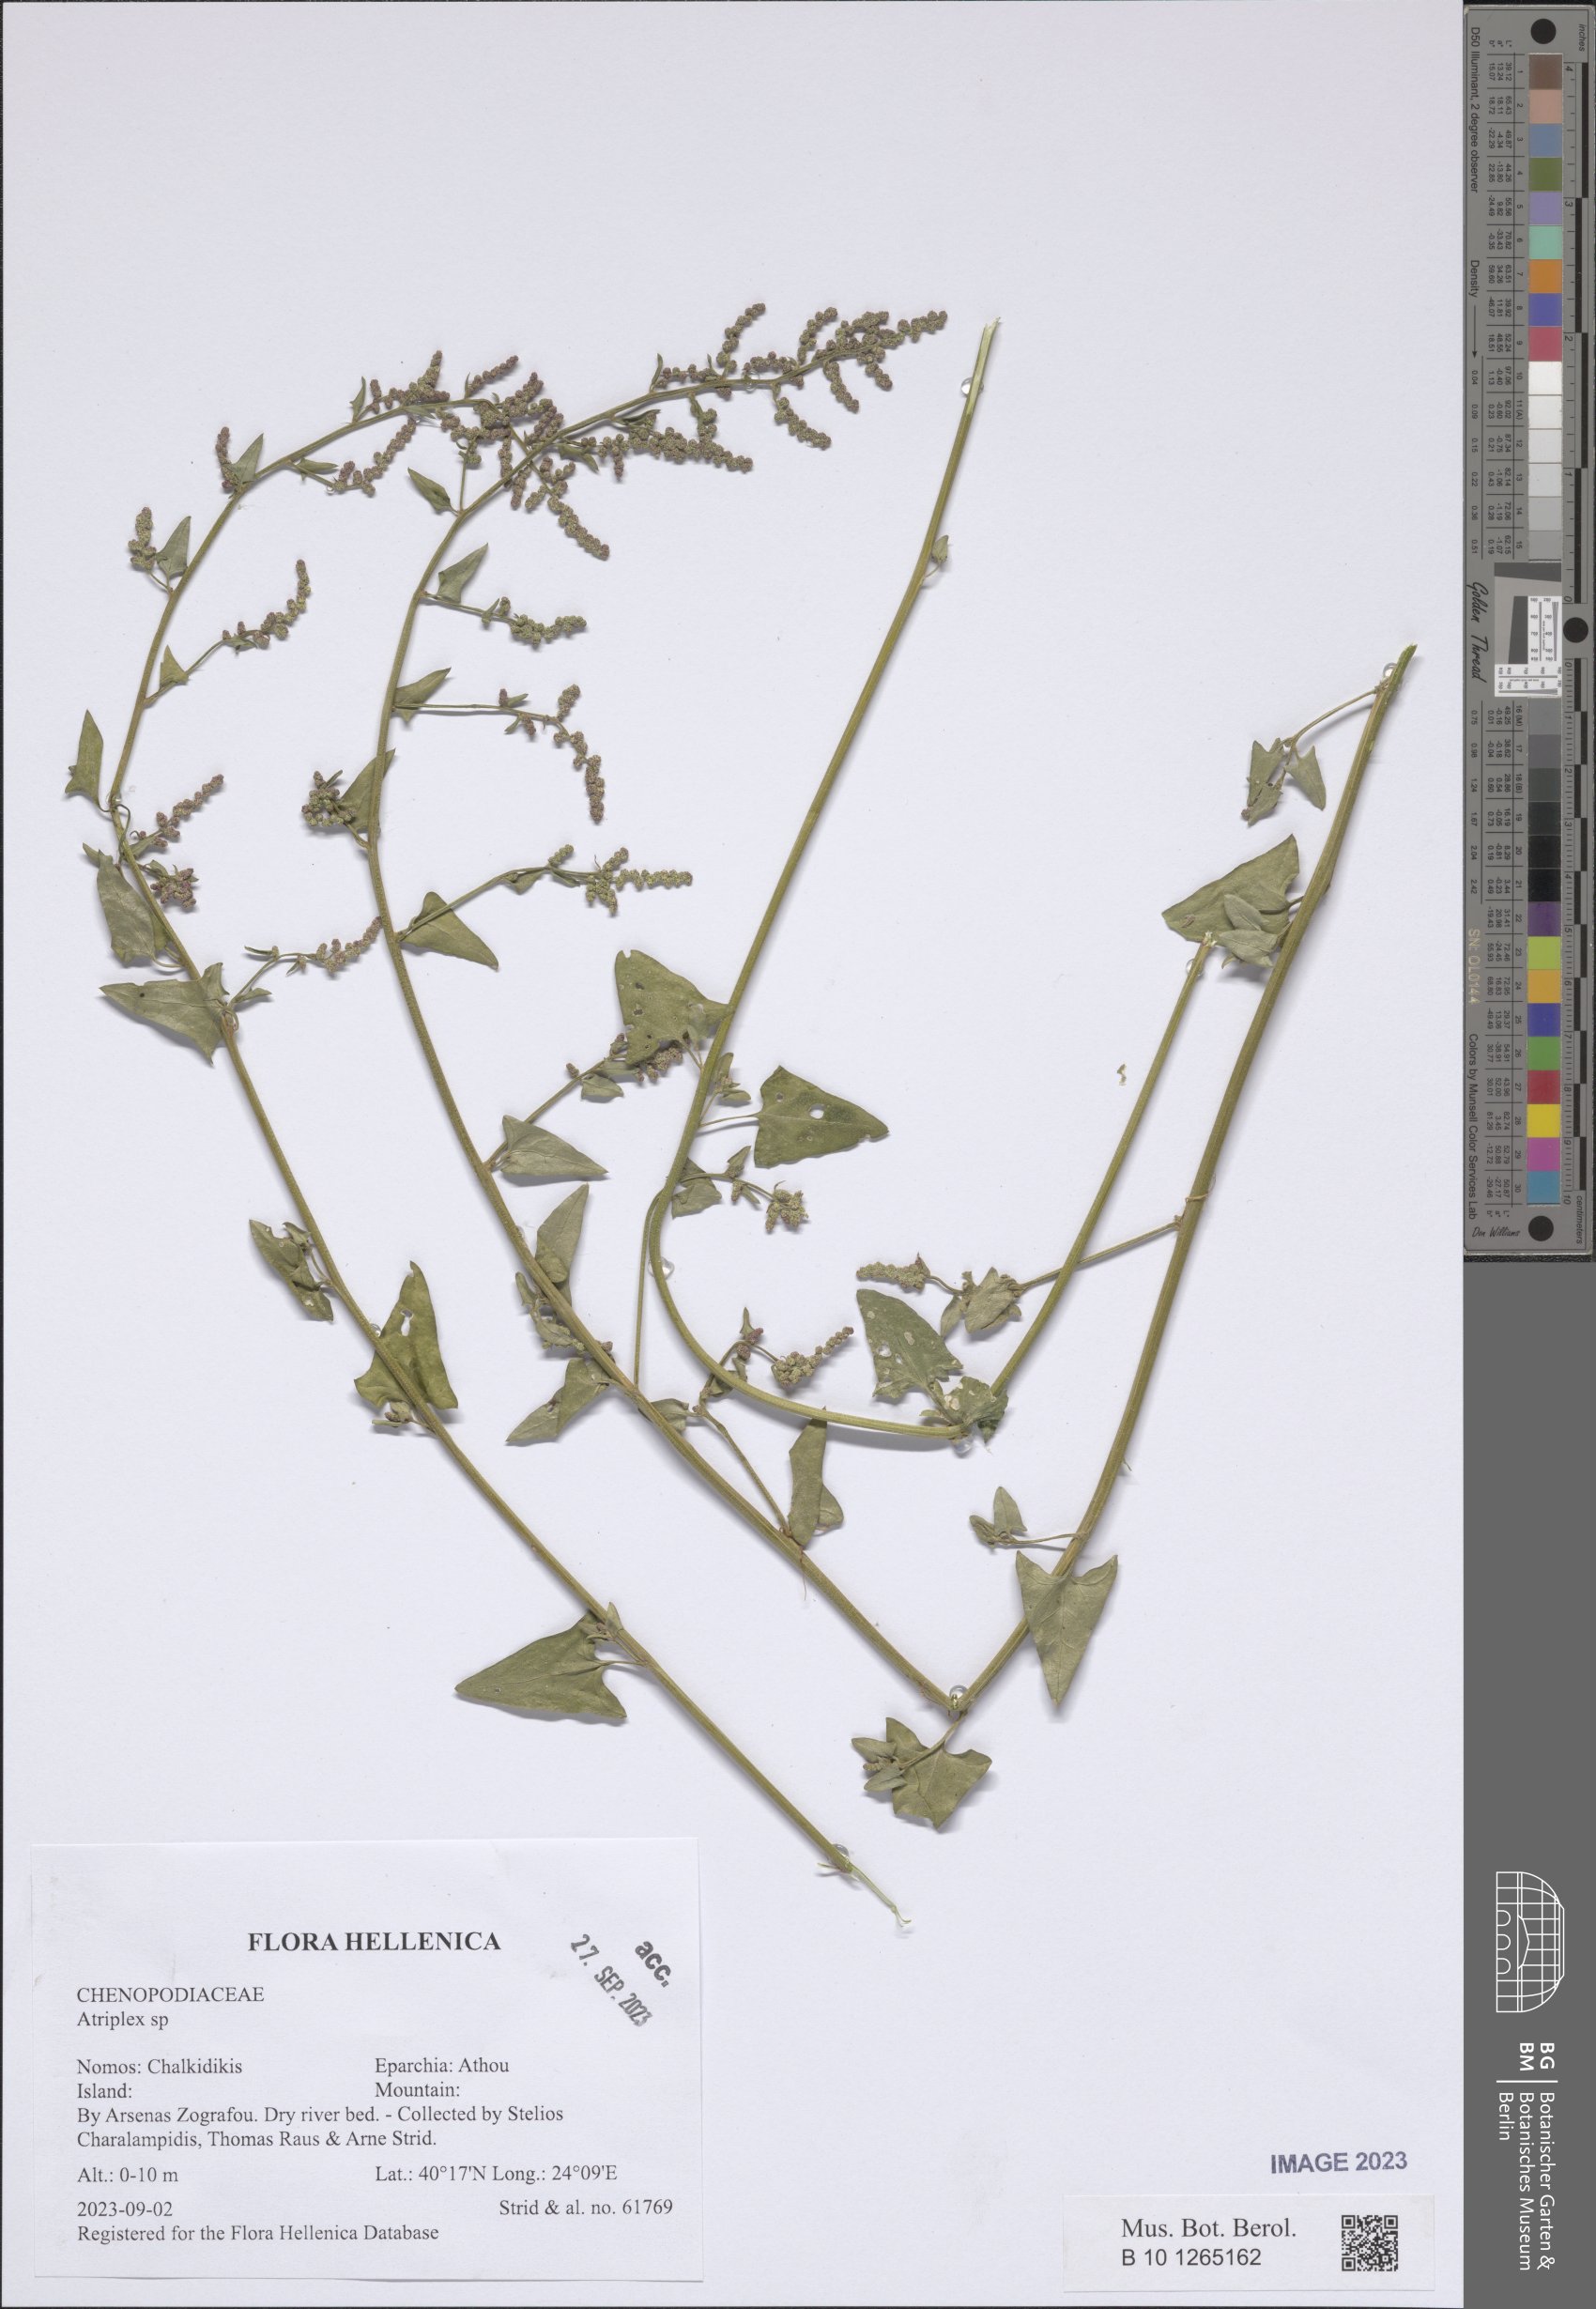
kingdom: Plantae
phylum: Tracheophyta
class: Magnoliopsida
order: Caryophyllales
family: Amaranthaceae
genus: Atriplex
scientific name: Atriplex
